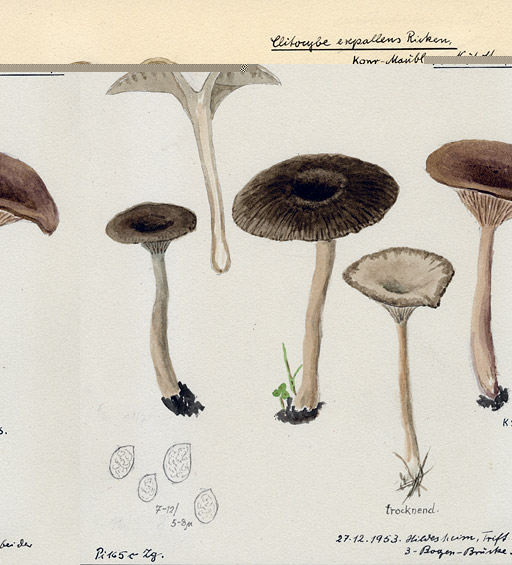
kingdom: Fungi
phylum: Basidiomycota
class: Agaricomycetes
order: Agaricales
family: Pseudoclitocybaceae
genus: Pseudoclitocybe
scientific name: Pseudoclitocybe expallens
